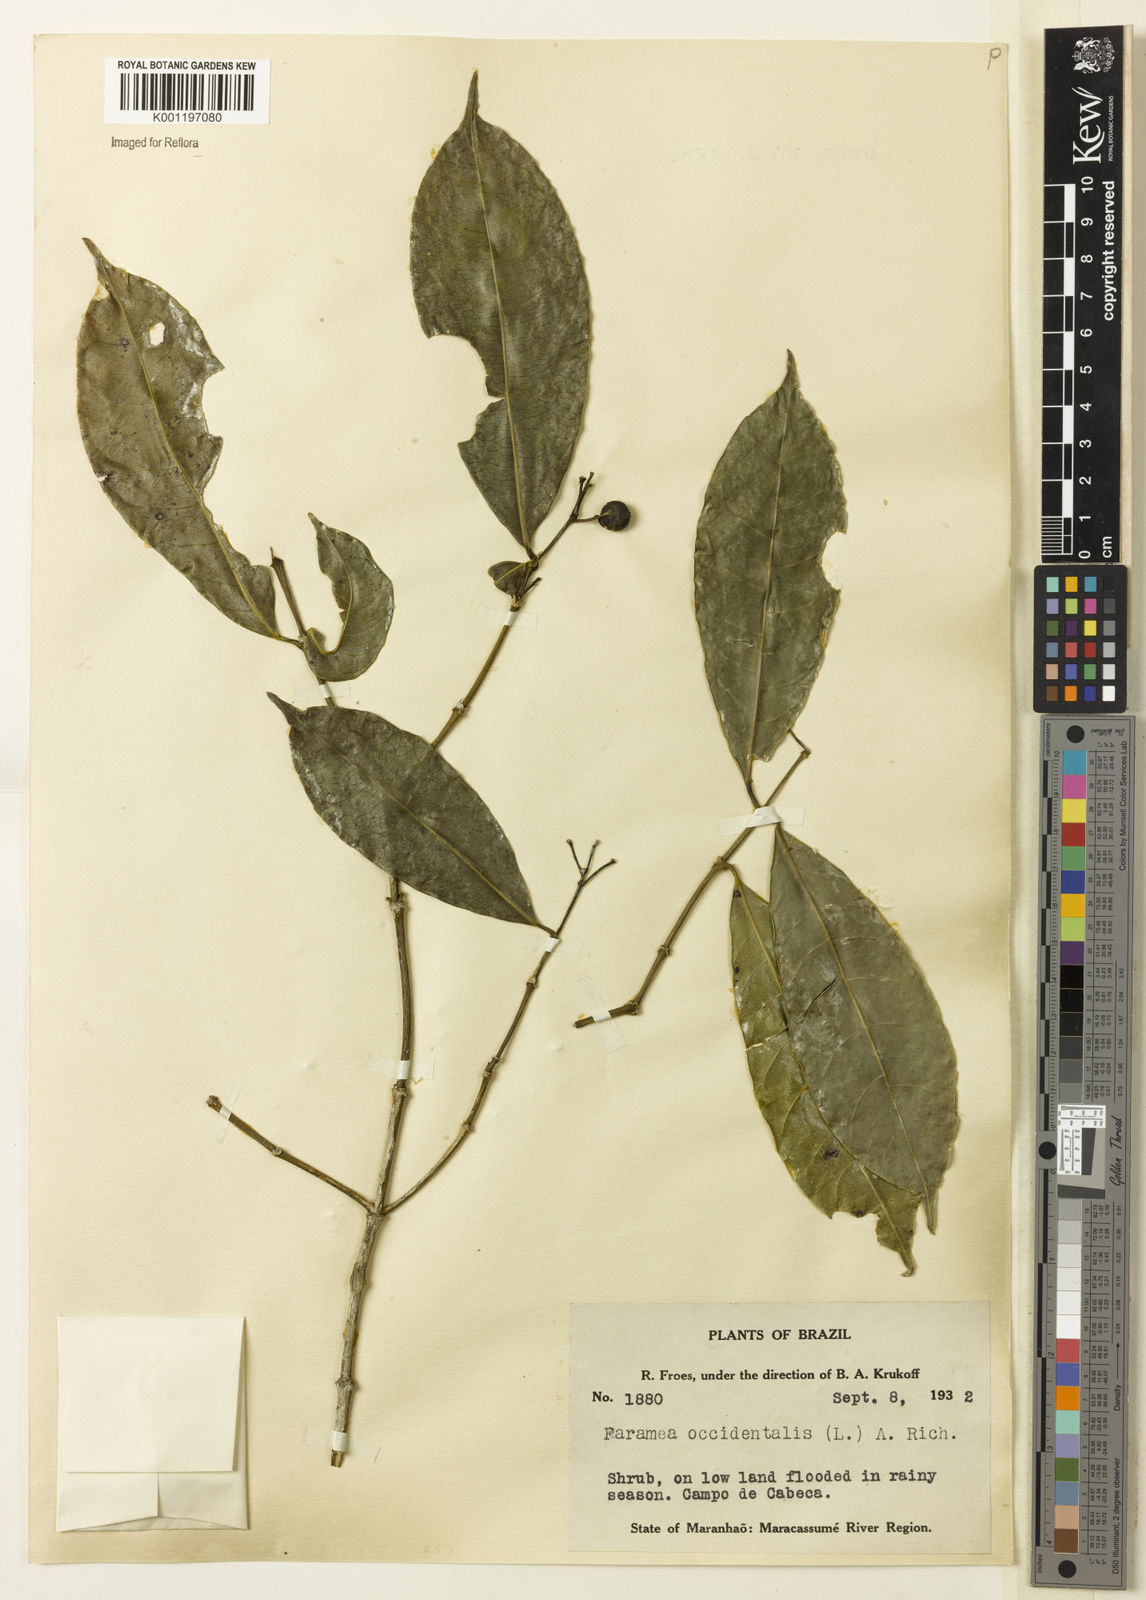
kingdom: Plantae
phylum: Tracheophyta
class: Magnoliopsida
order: Gentianales
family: Rubiaceae
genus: Faramea
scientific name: Faramea occidentalis
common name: False coffee
